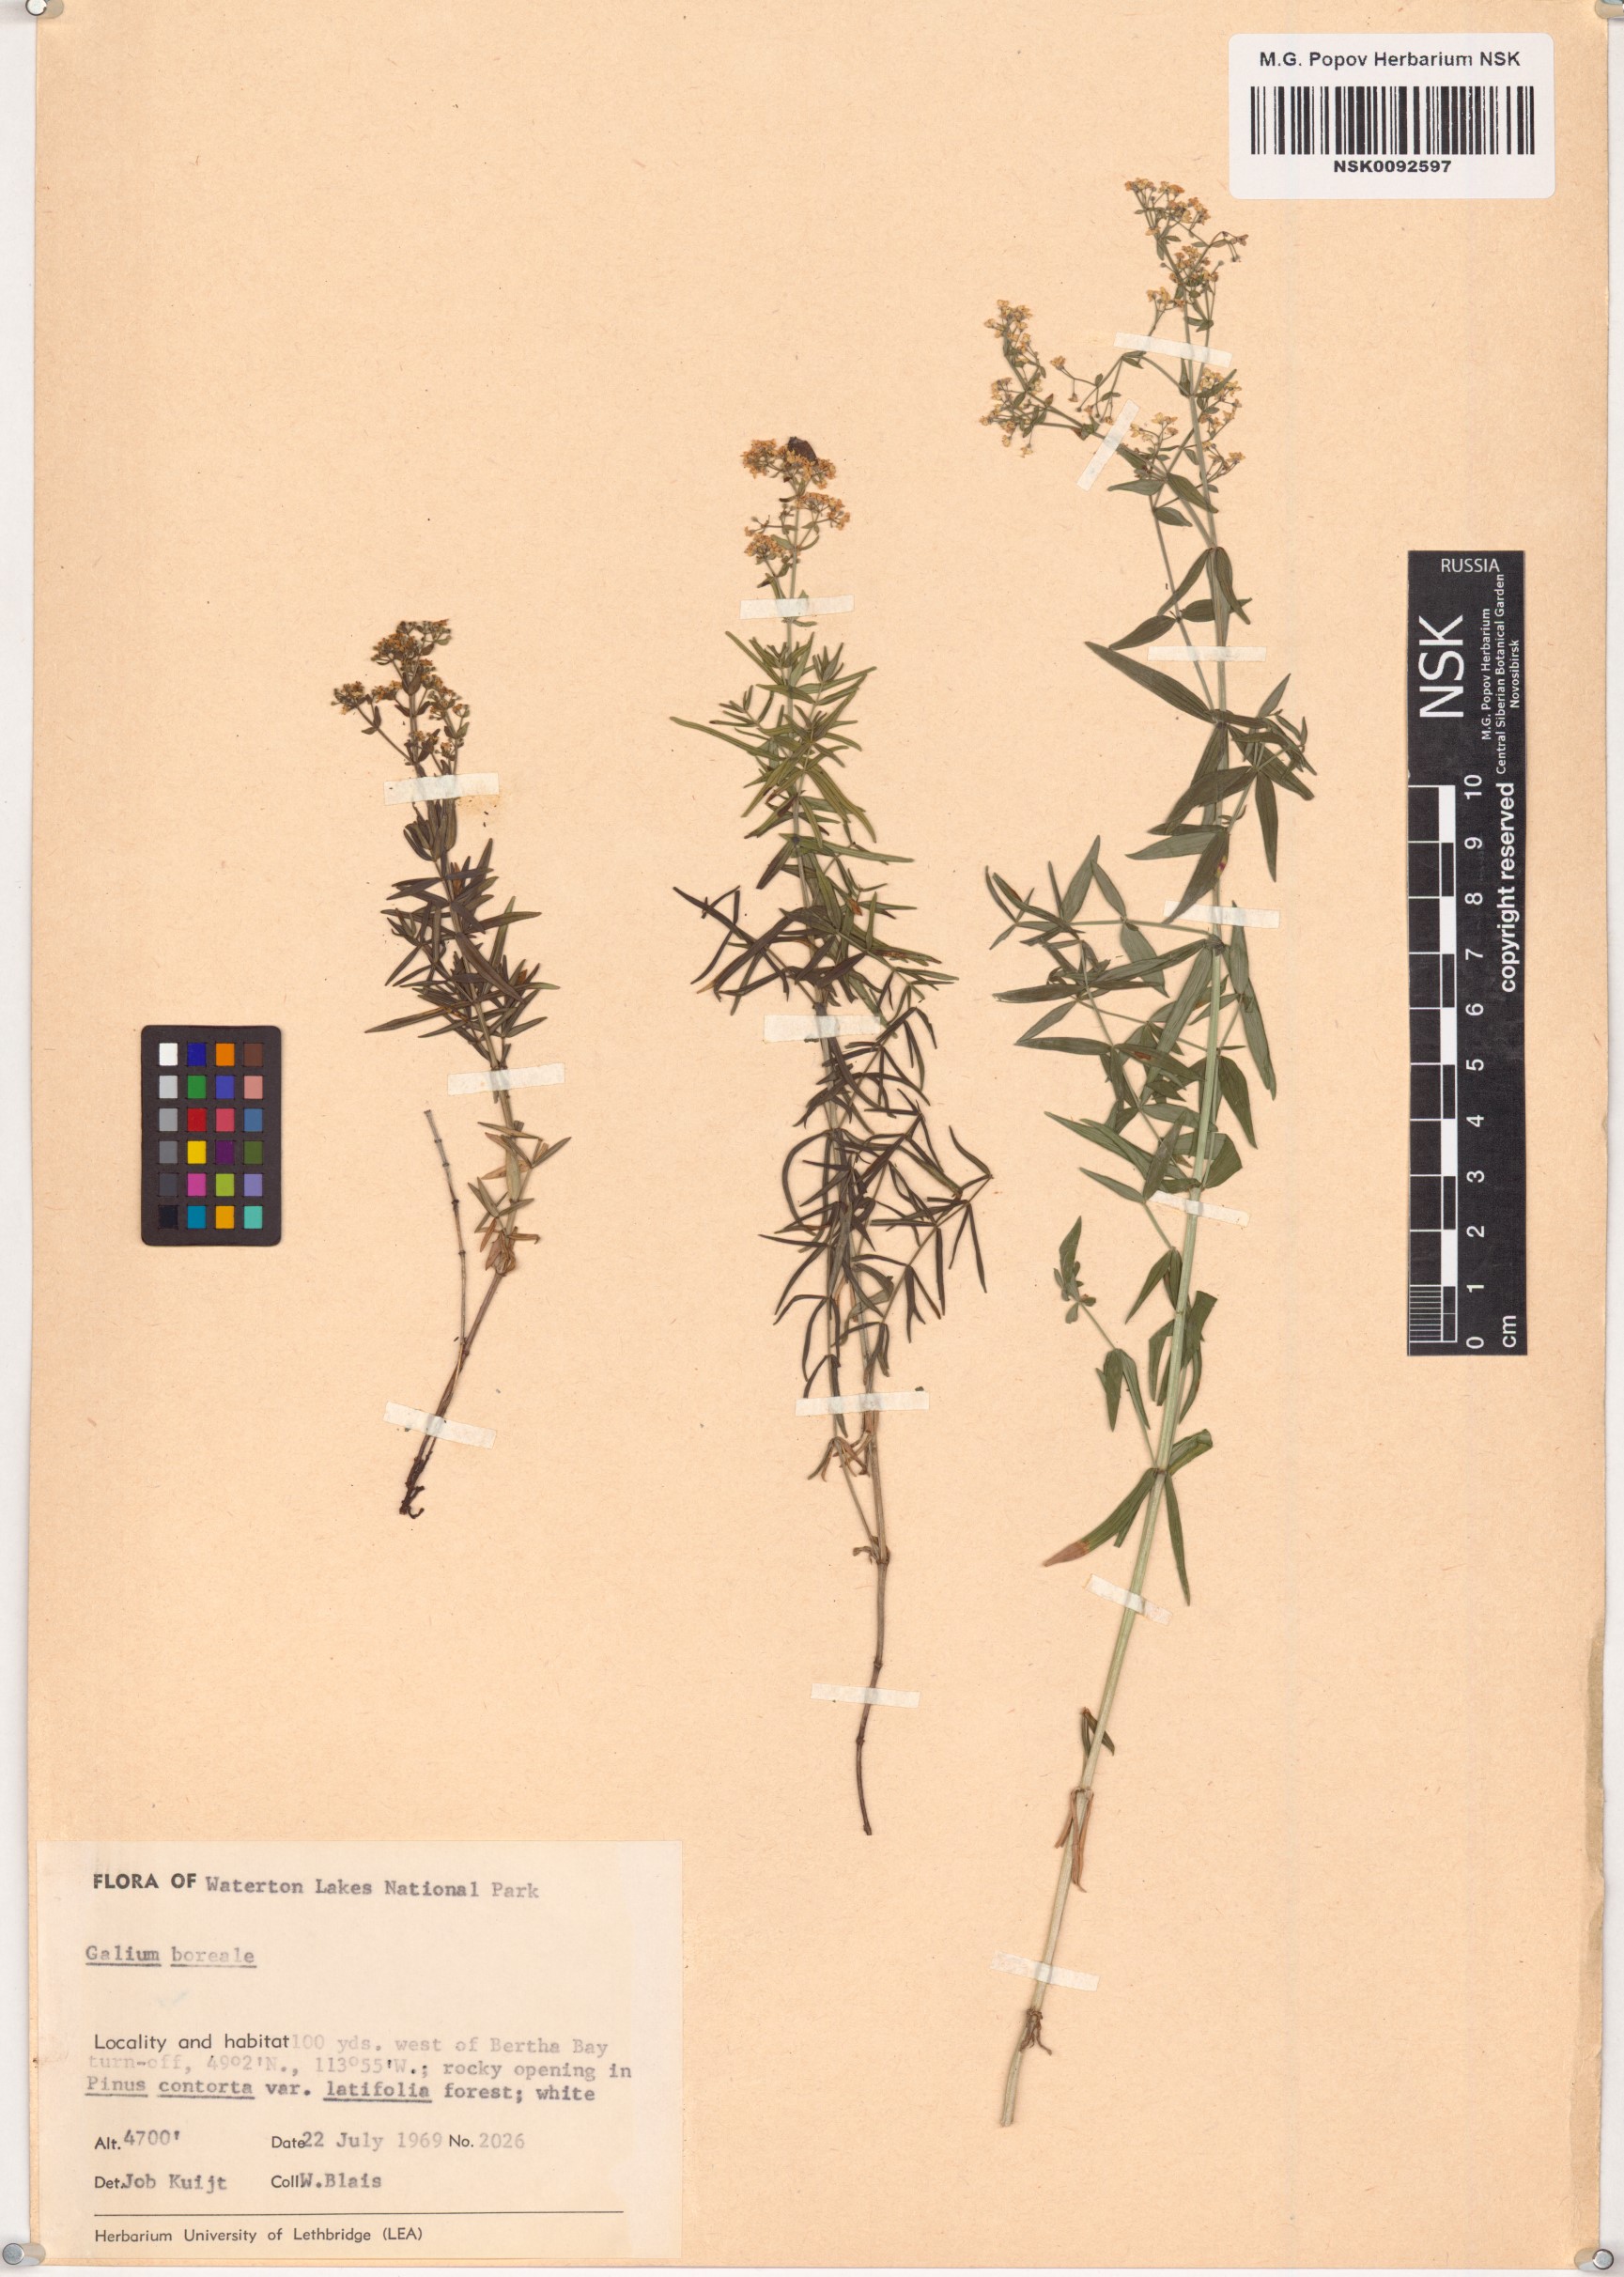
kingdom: Plantae
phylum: Tracheophyta
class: Magnoliopsida
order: Gentianales
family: Rubiaceae
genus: Galium
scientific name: Galium boreale
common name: Northern bedstraw
